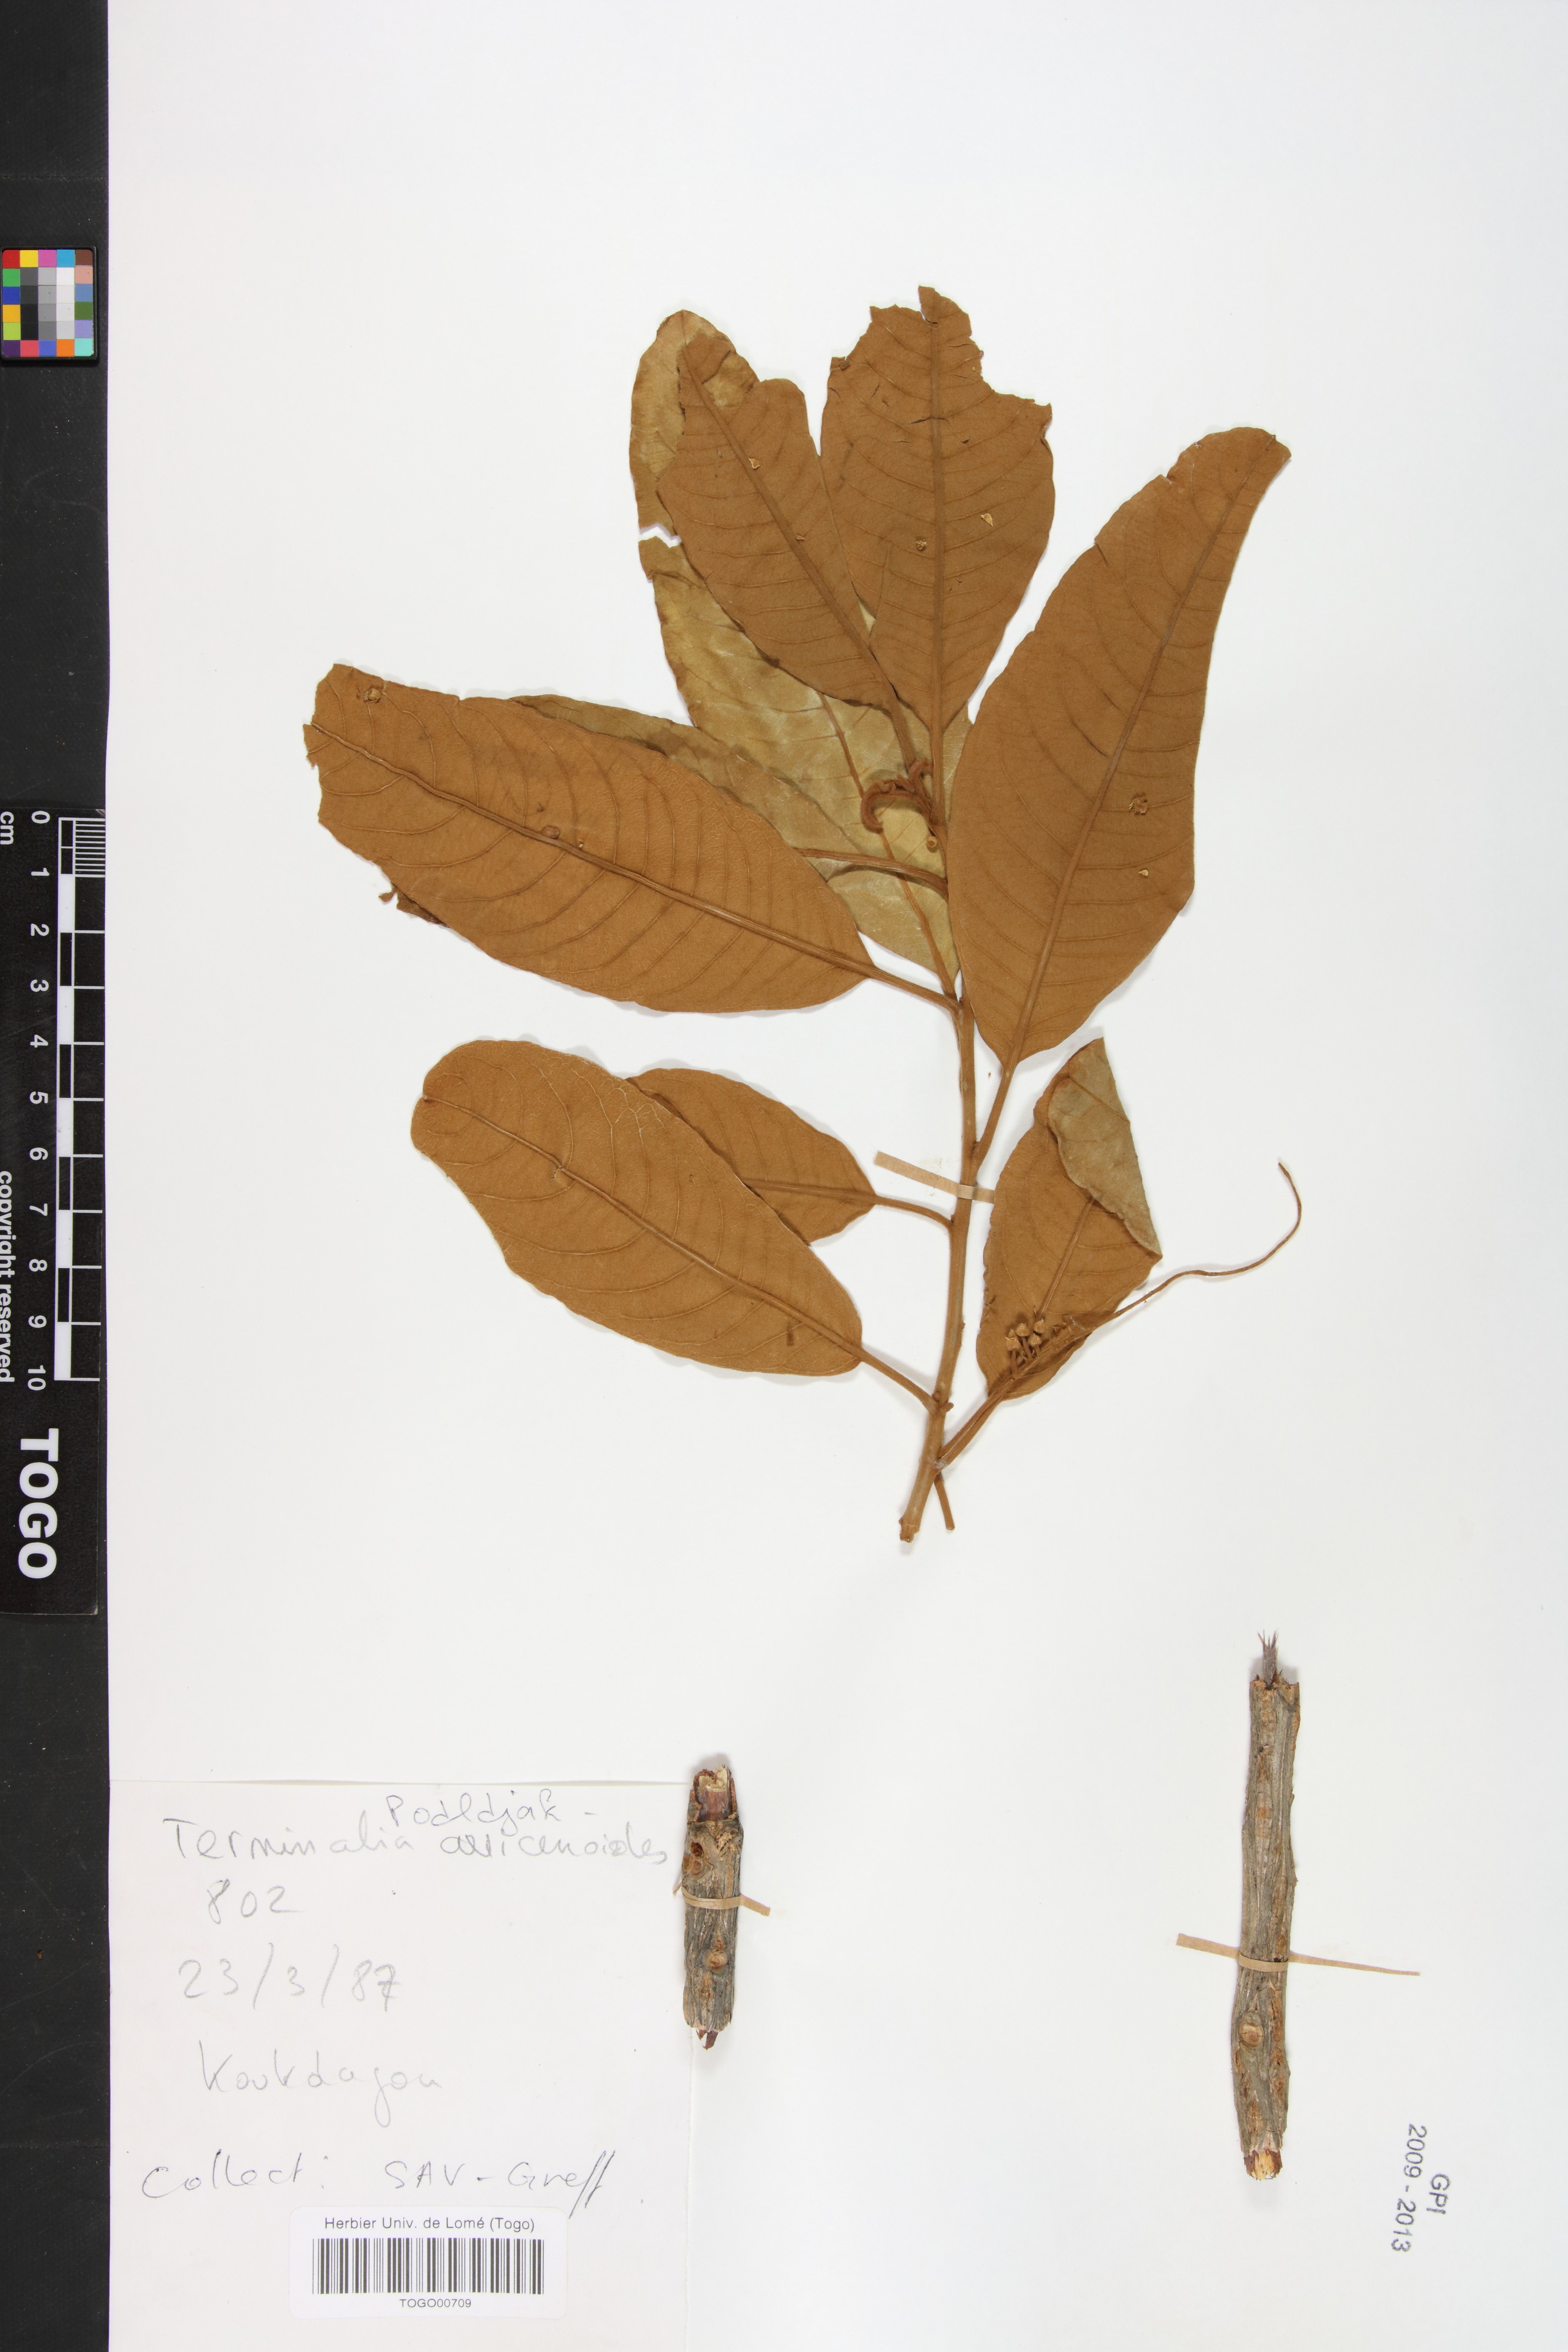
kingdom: Plantae
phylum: Tracheophyta
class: Magnoliopsida
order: Myrtales
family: Combretaceae
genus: Terminalia
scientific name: Terminalia avicennioides
